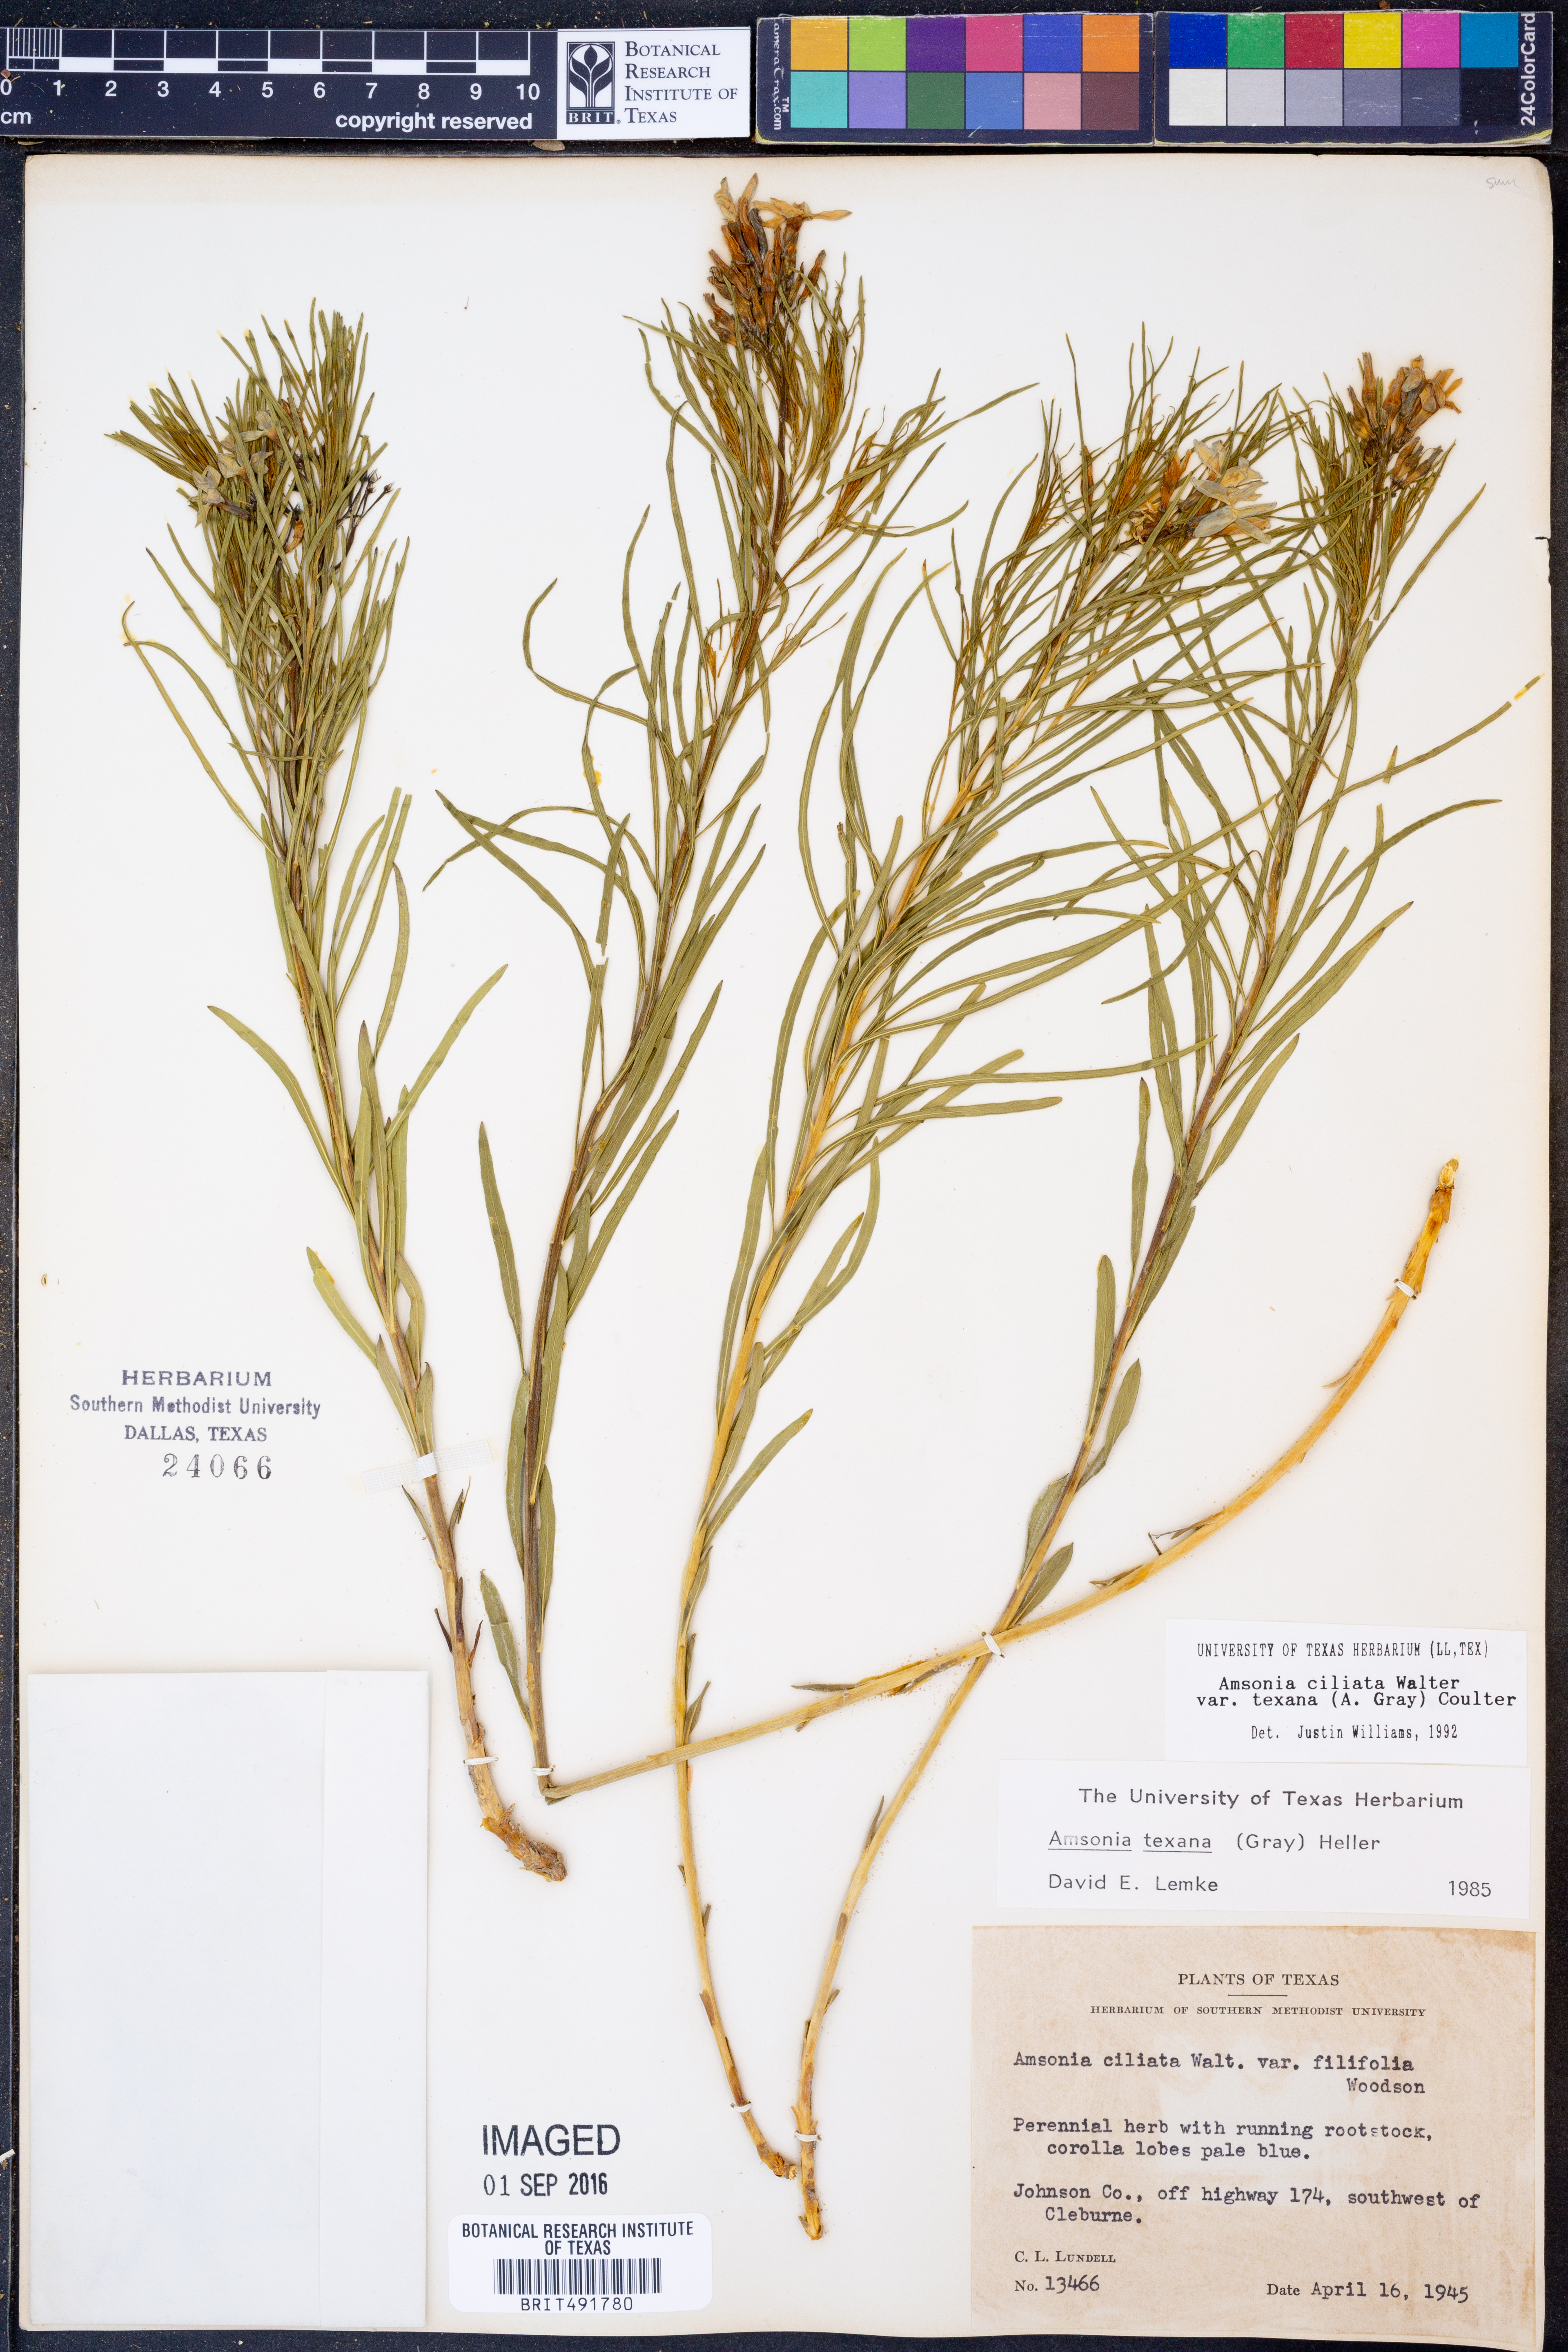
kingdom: Plantae
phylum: Tracheophyta
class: Magnoliopsida
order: Gentianales
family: Apocynaceae
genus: Amsonia
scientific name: Amsonia ciliata
